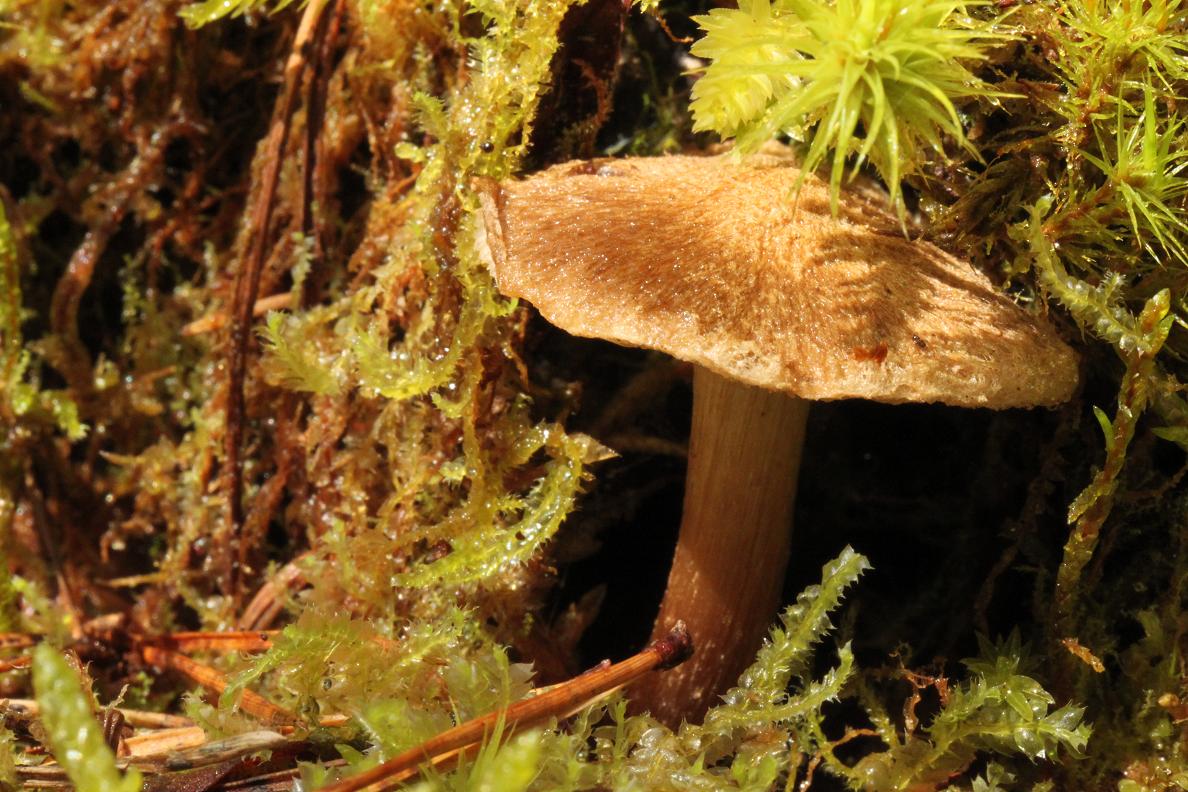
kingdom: Fungi
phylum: Basidiomycota
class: Agaricomycetes
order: Agaricales
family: Inocybaceae
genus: Inocybe
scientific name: Inocybe stellatospora
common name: spidsskællet trævlhat
